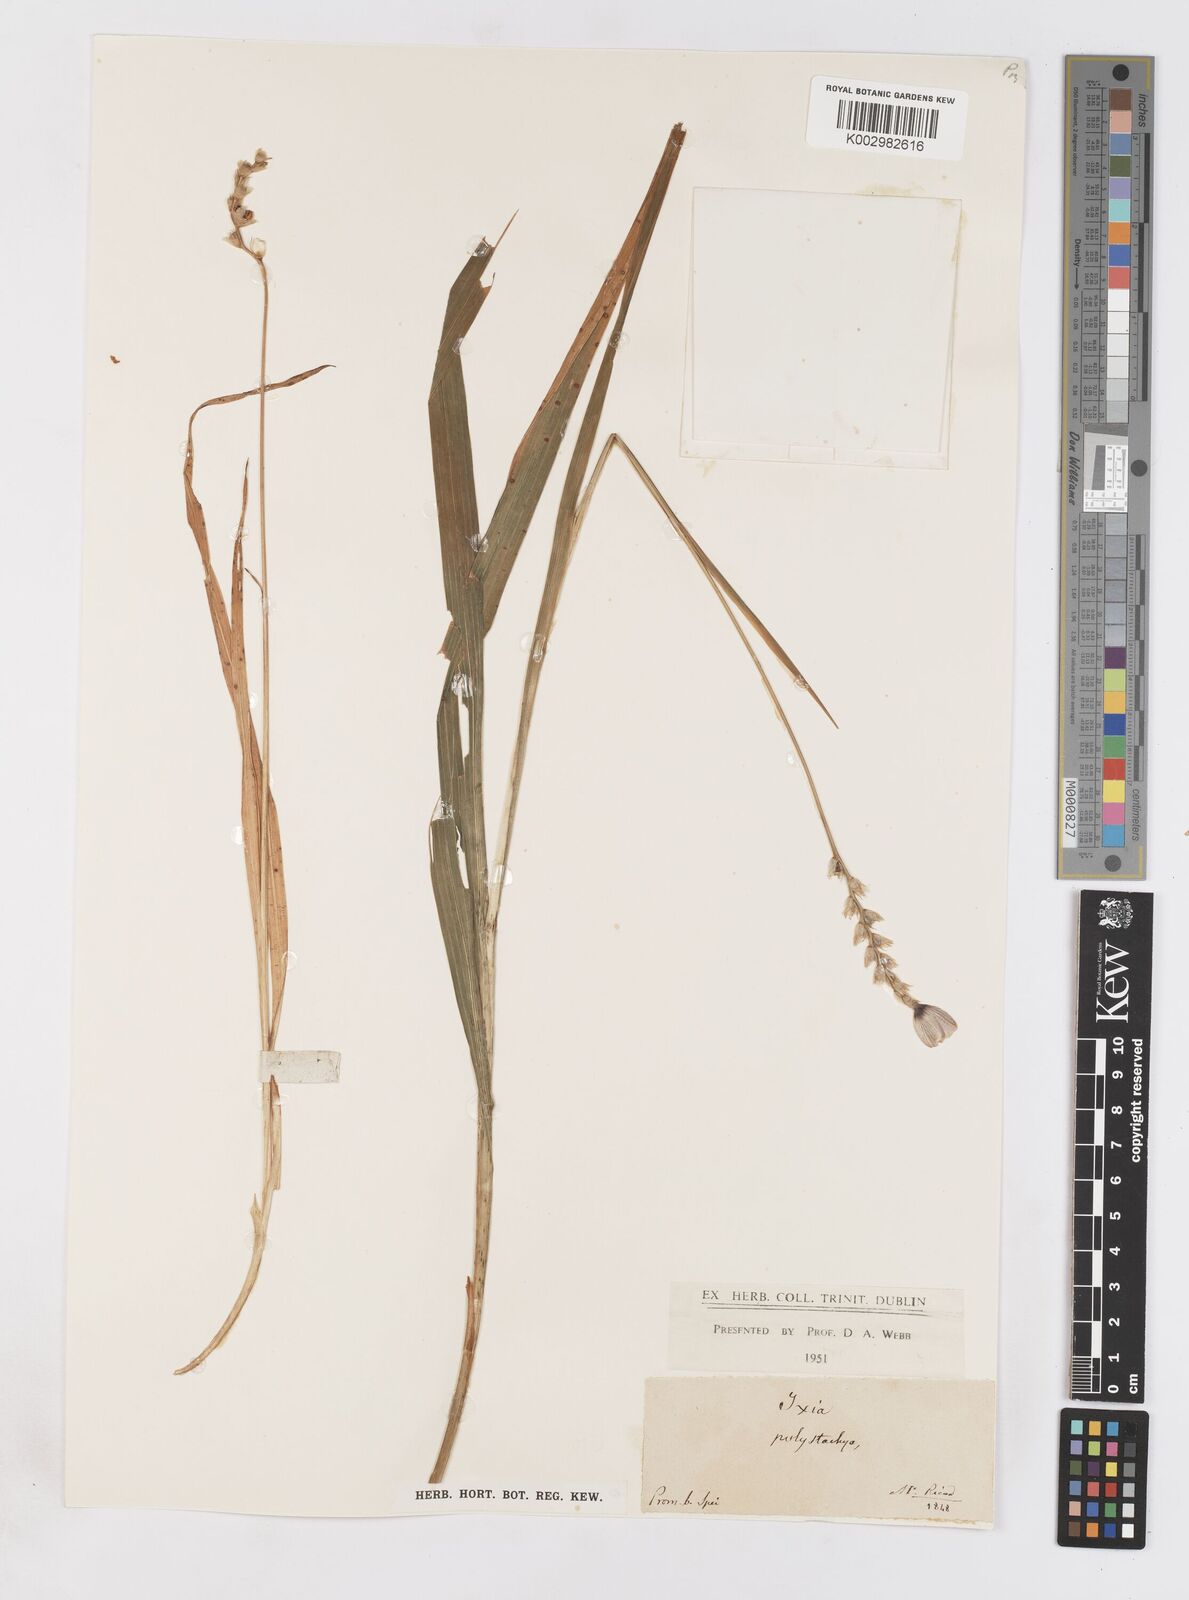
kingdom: Plantae
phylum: Tracheophyta
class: Liliopsida
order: Asparagales
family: Iridaceae
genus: Ixia
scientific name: Ixia polystachya
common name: White-and-yellow-flower cornlily
